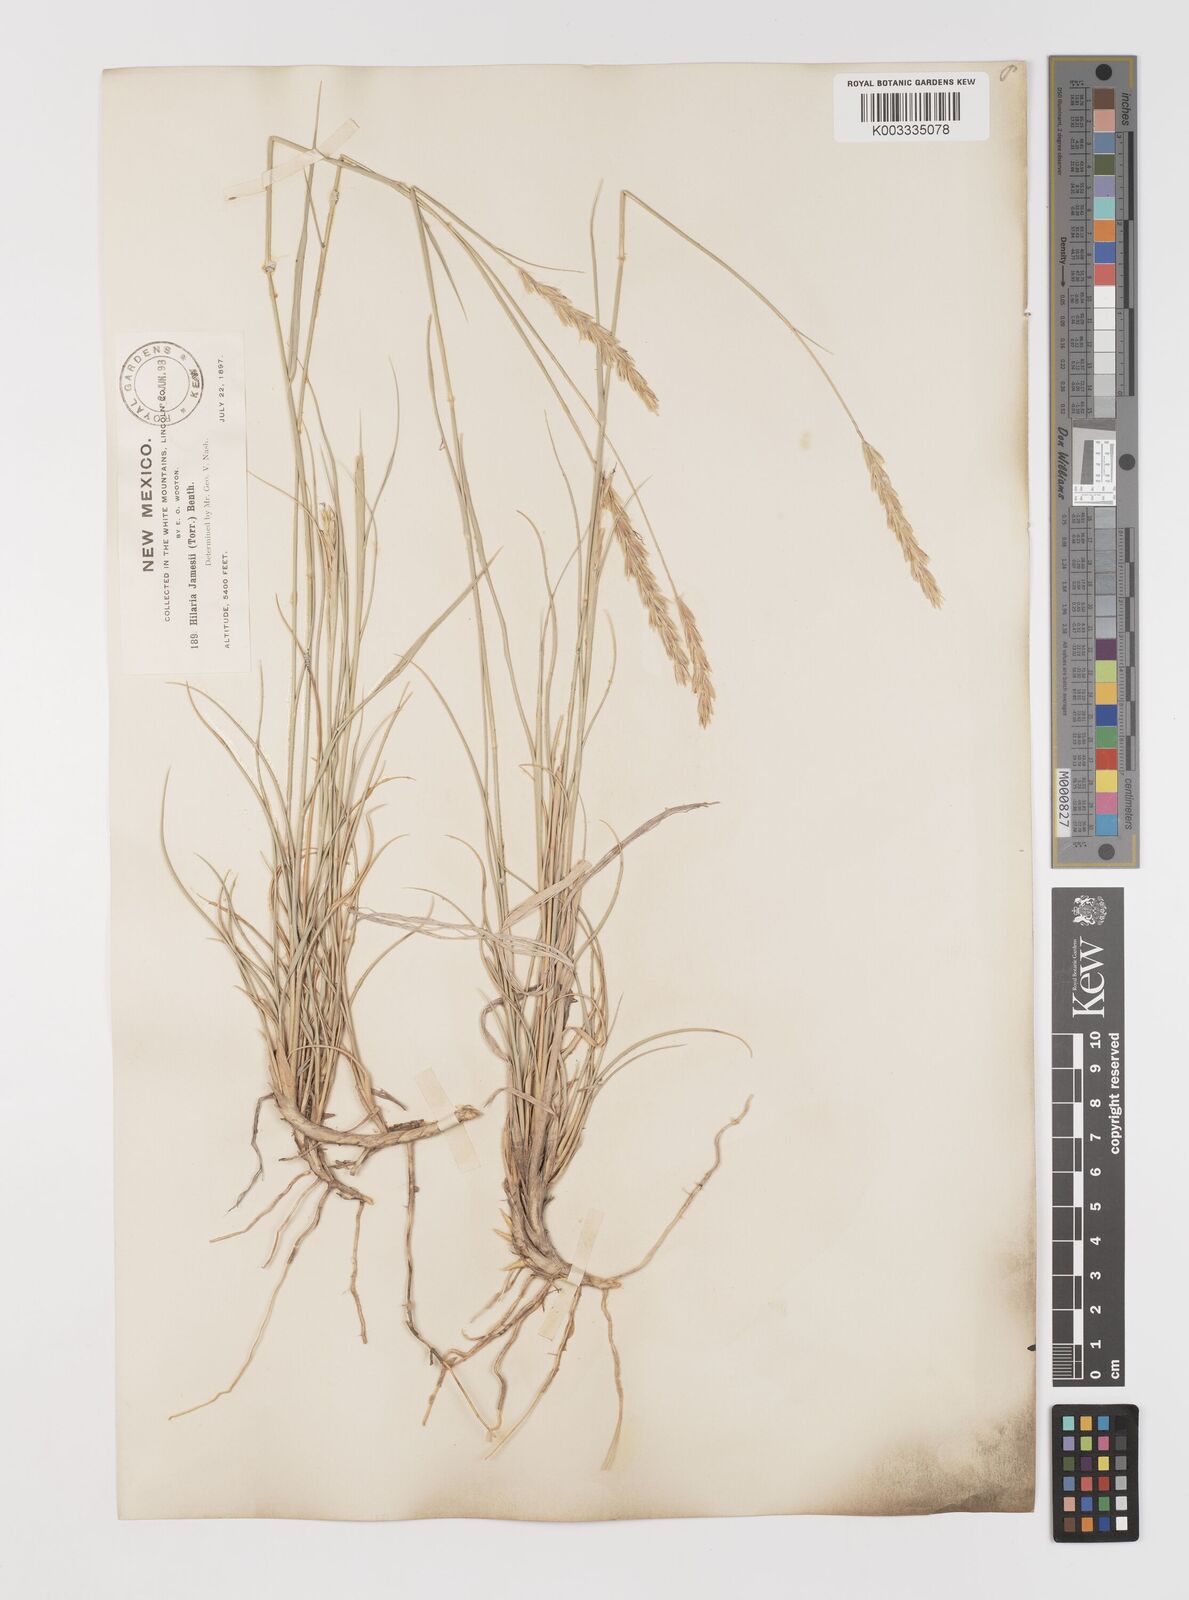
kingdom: Plantae
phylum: Tracheophyta
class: Liliopsida
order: Poales
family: Poaceae
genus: Hilaria
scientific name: Hilaria jamesii
